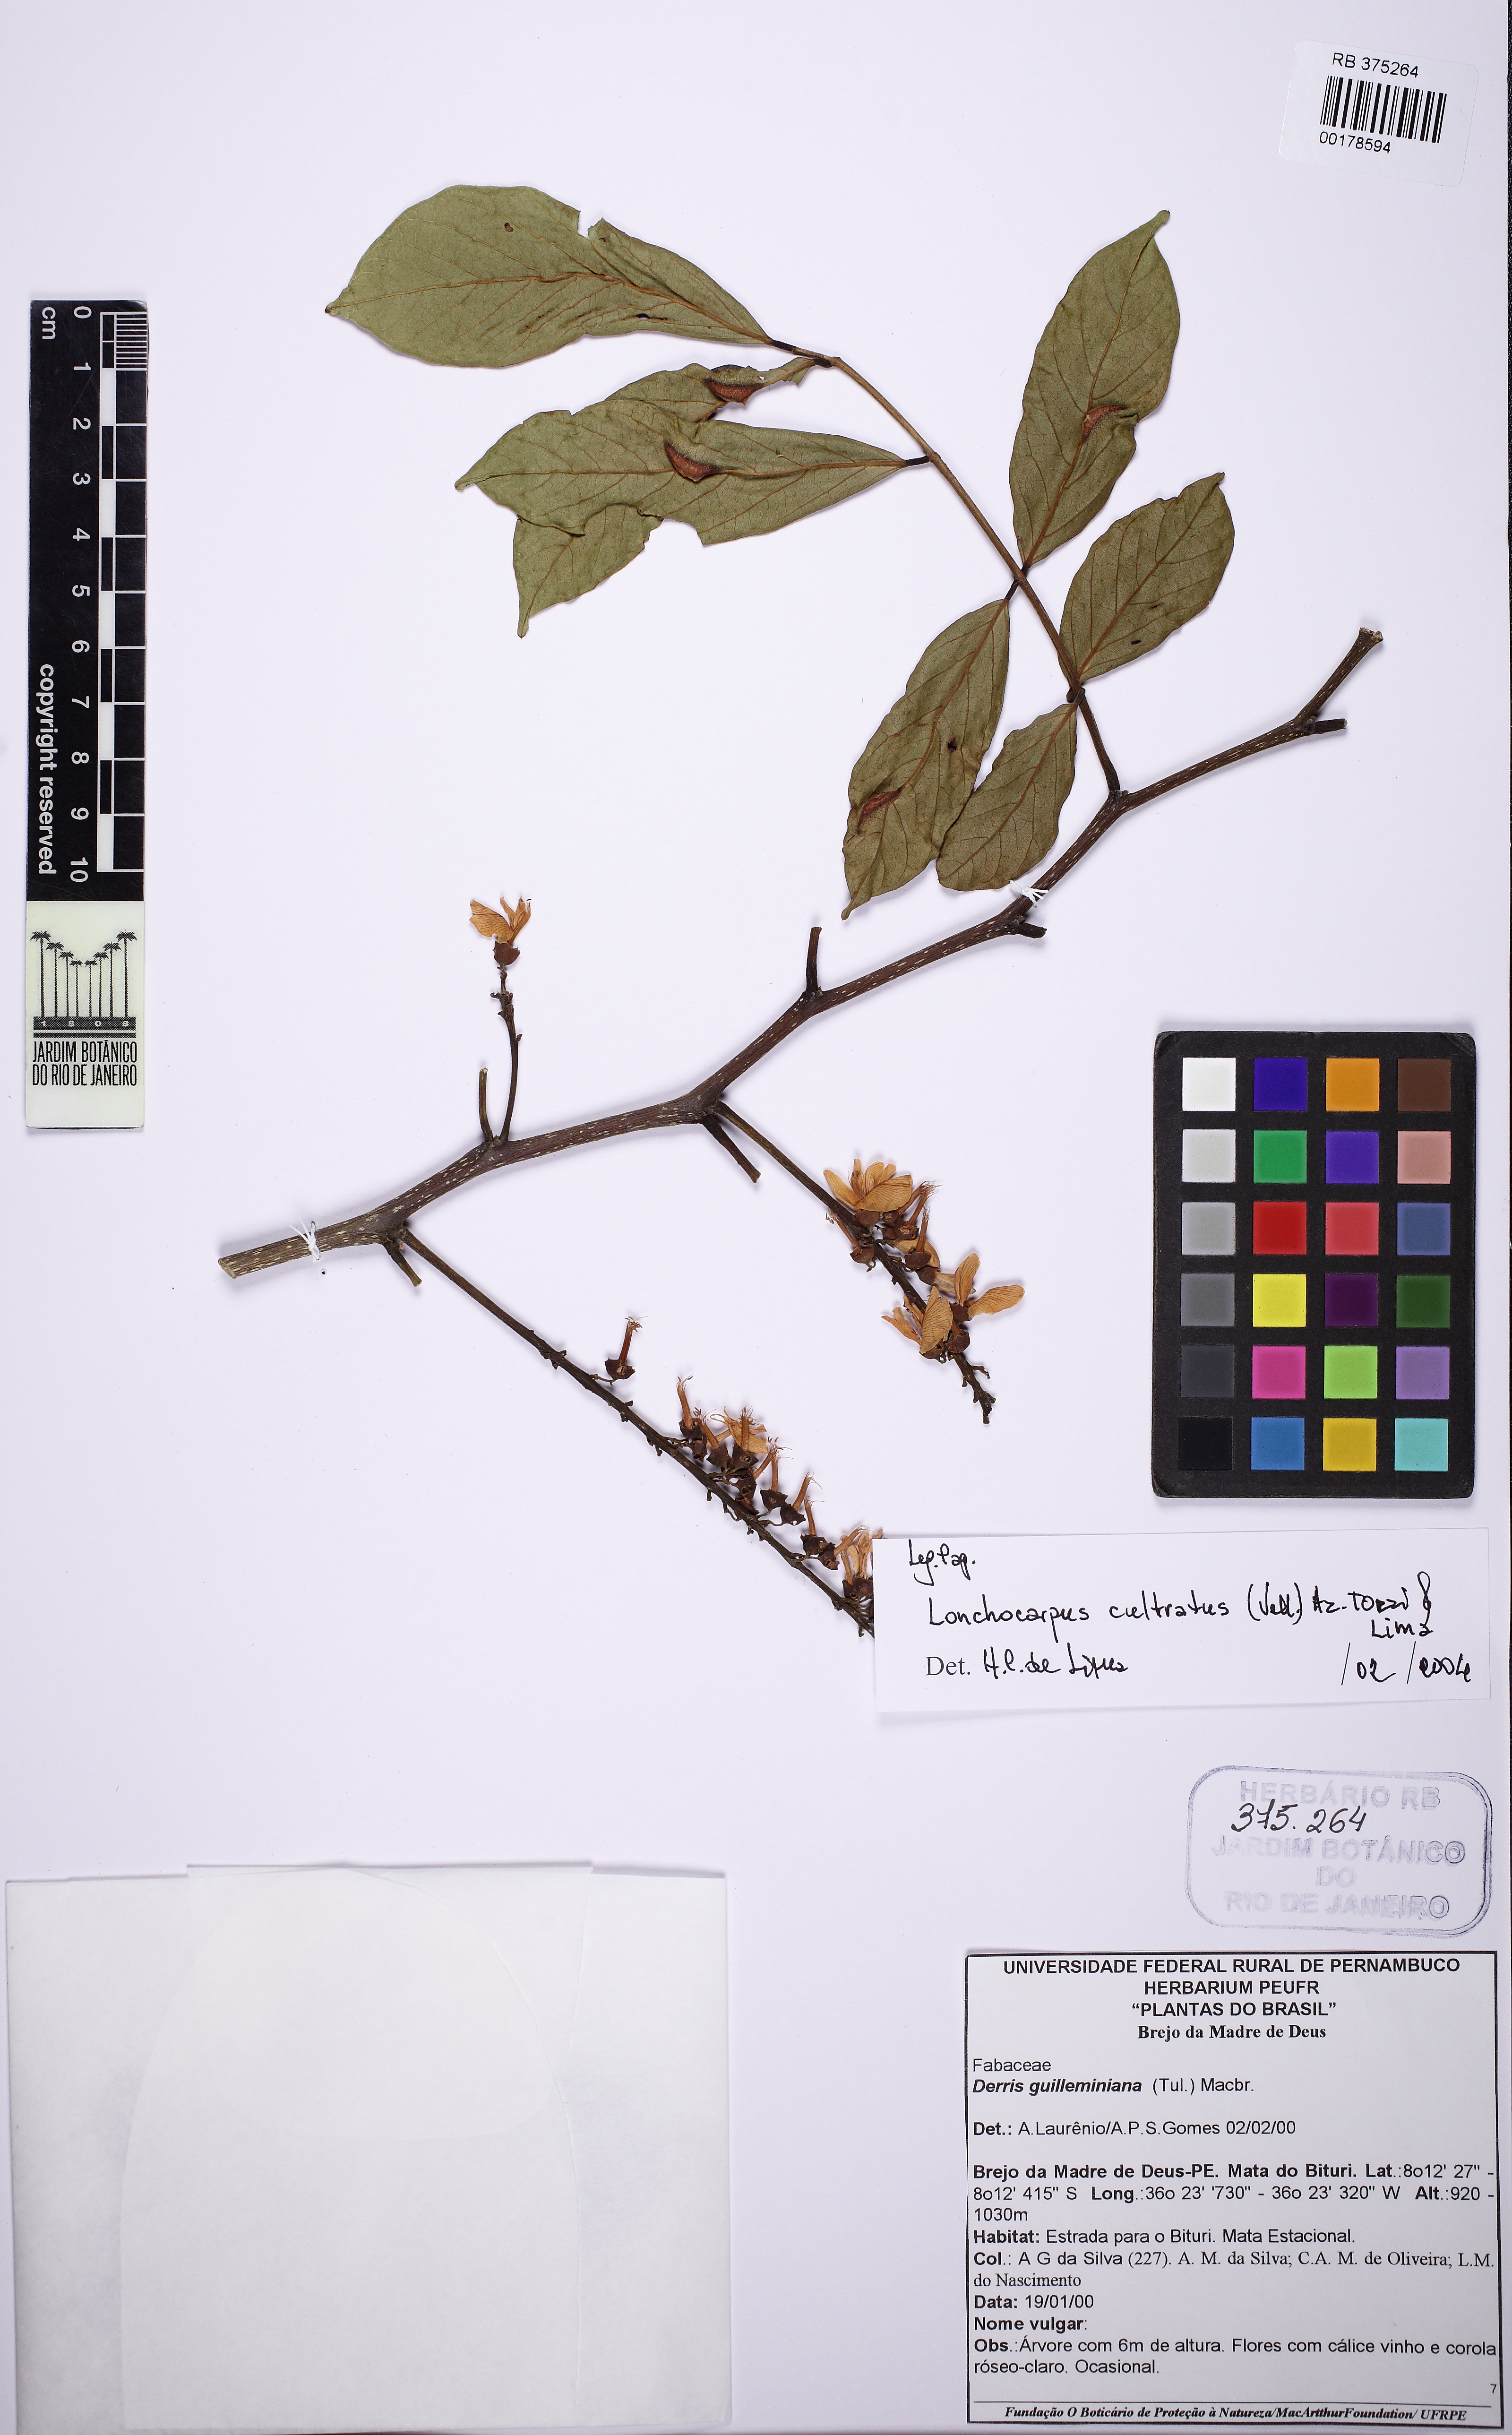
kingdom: Plantae
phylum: Tracheophyta
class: Magnoliopsida
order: Fabales
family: Fabaceae
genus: Lonchocarpus
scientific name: Lonchocarpus cultratus
